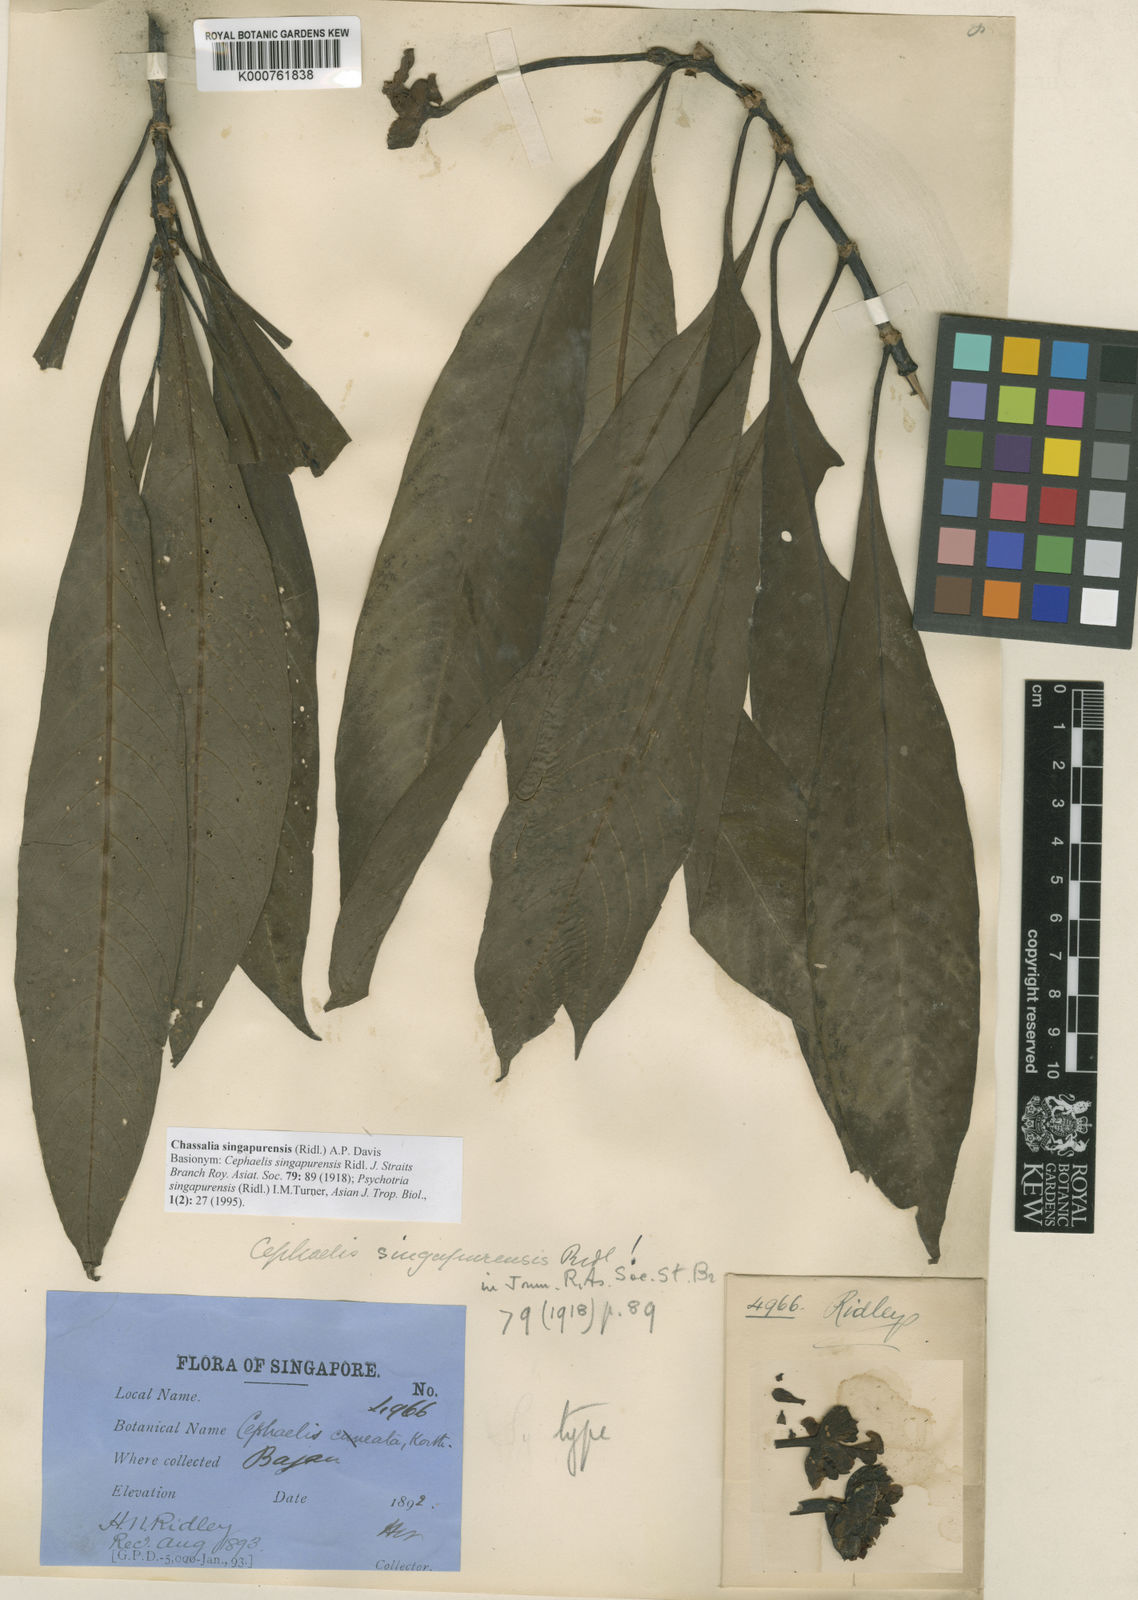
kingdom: Plantae
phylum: Tracheophyta
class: Magnoliopsida
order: Gentianales
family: Rubiaceae
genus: Chassalia
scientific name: Chassalia singapurensis
